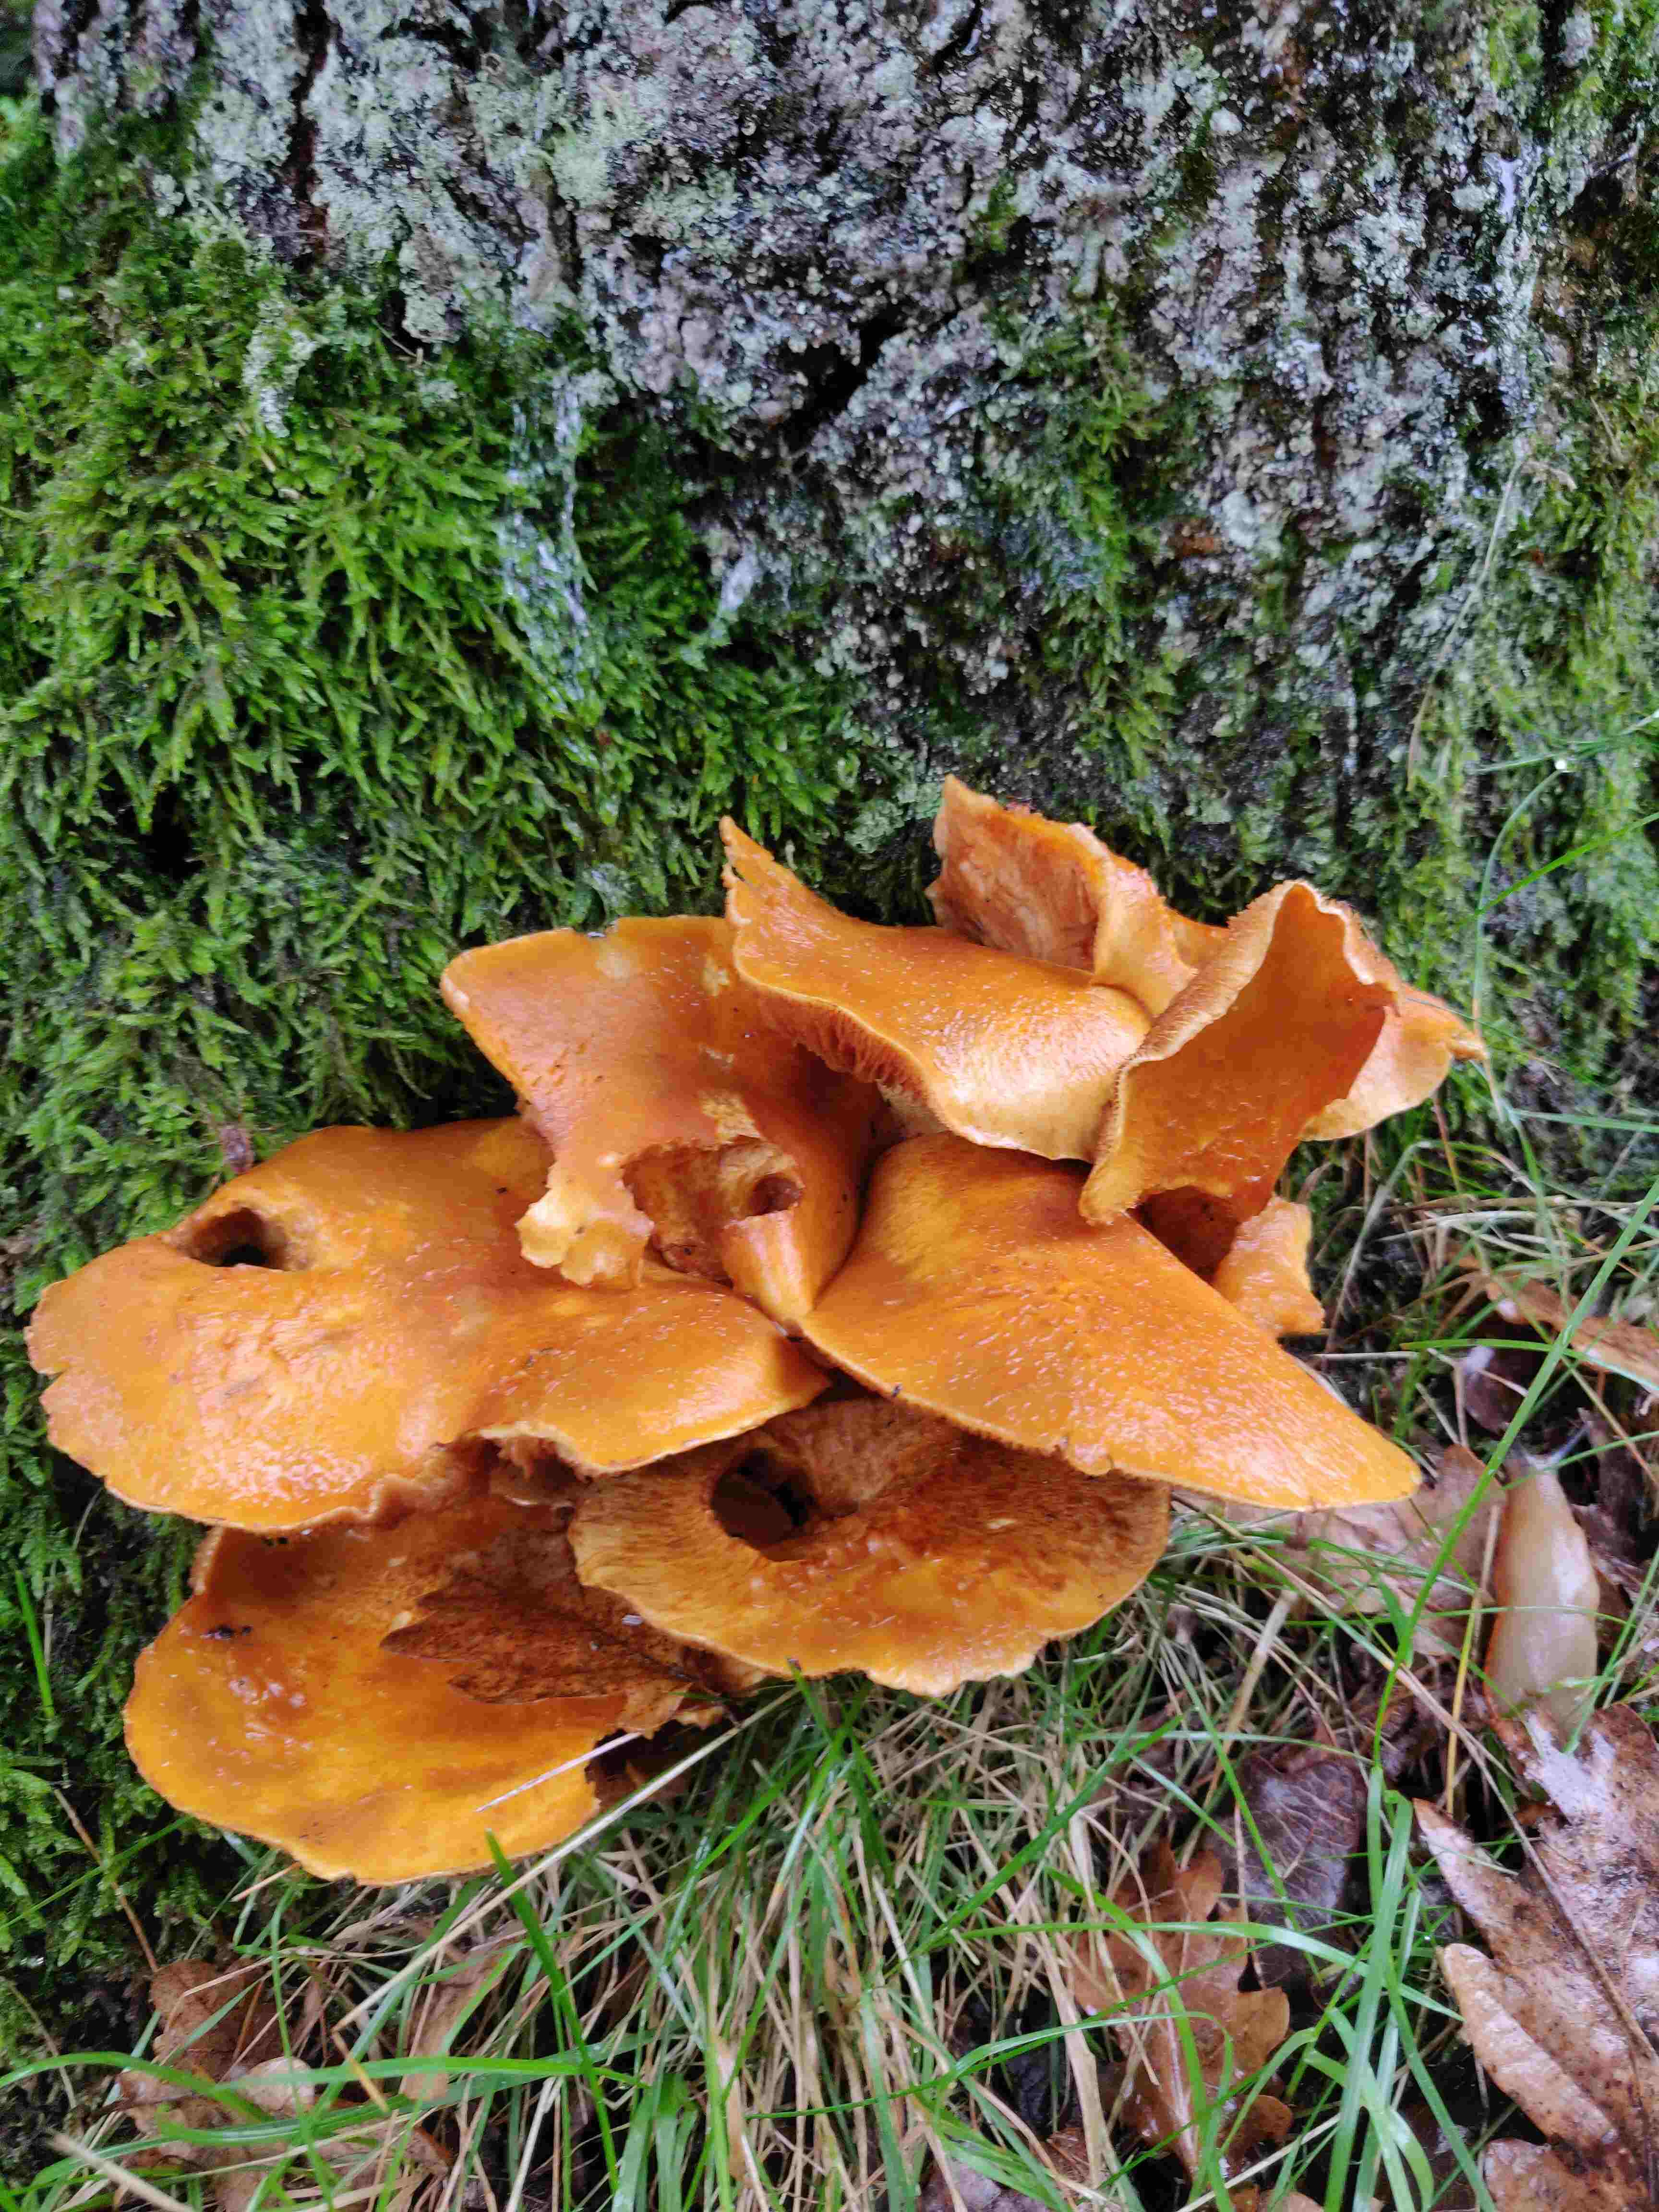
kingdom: Fungi
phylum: Basidiomycota
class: Agaricomycetes
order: Agaricales
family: Hymenogastraceae
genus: Gymnopilus
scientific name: Gymnopilus spectabilis
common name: fibret flammehat
